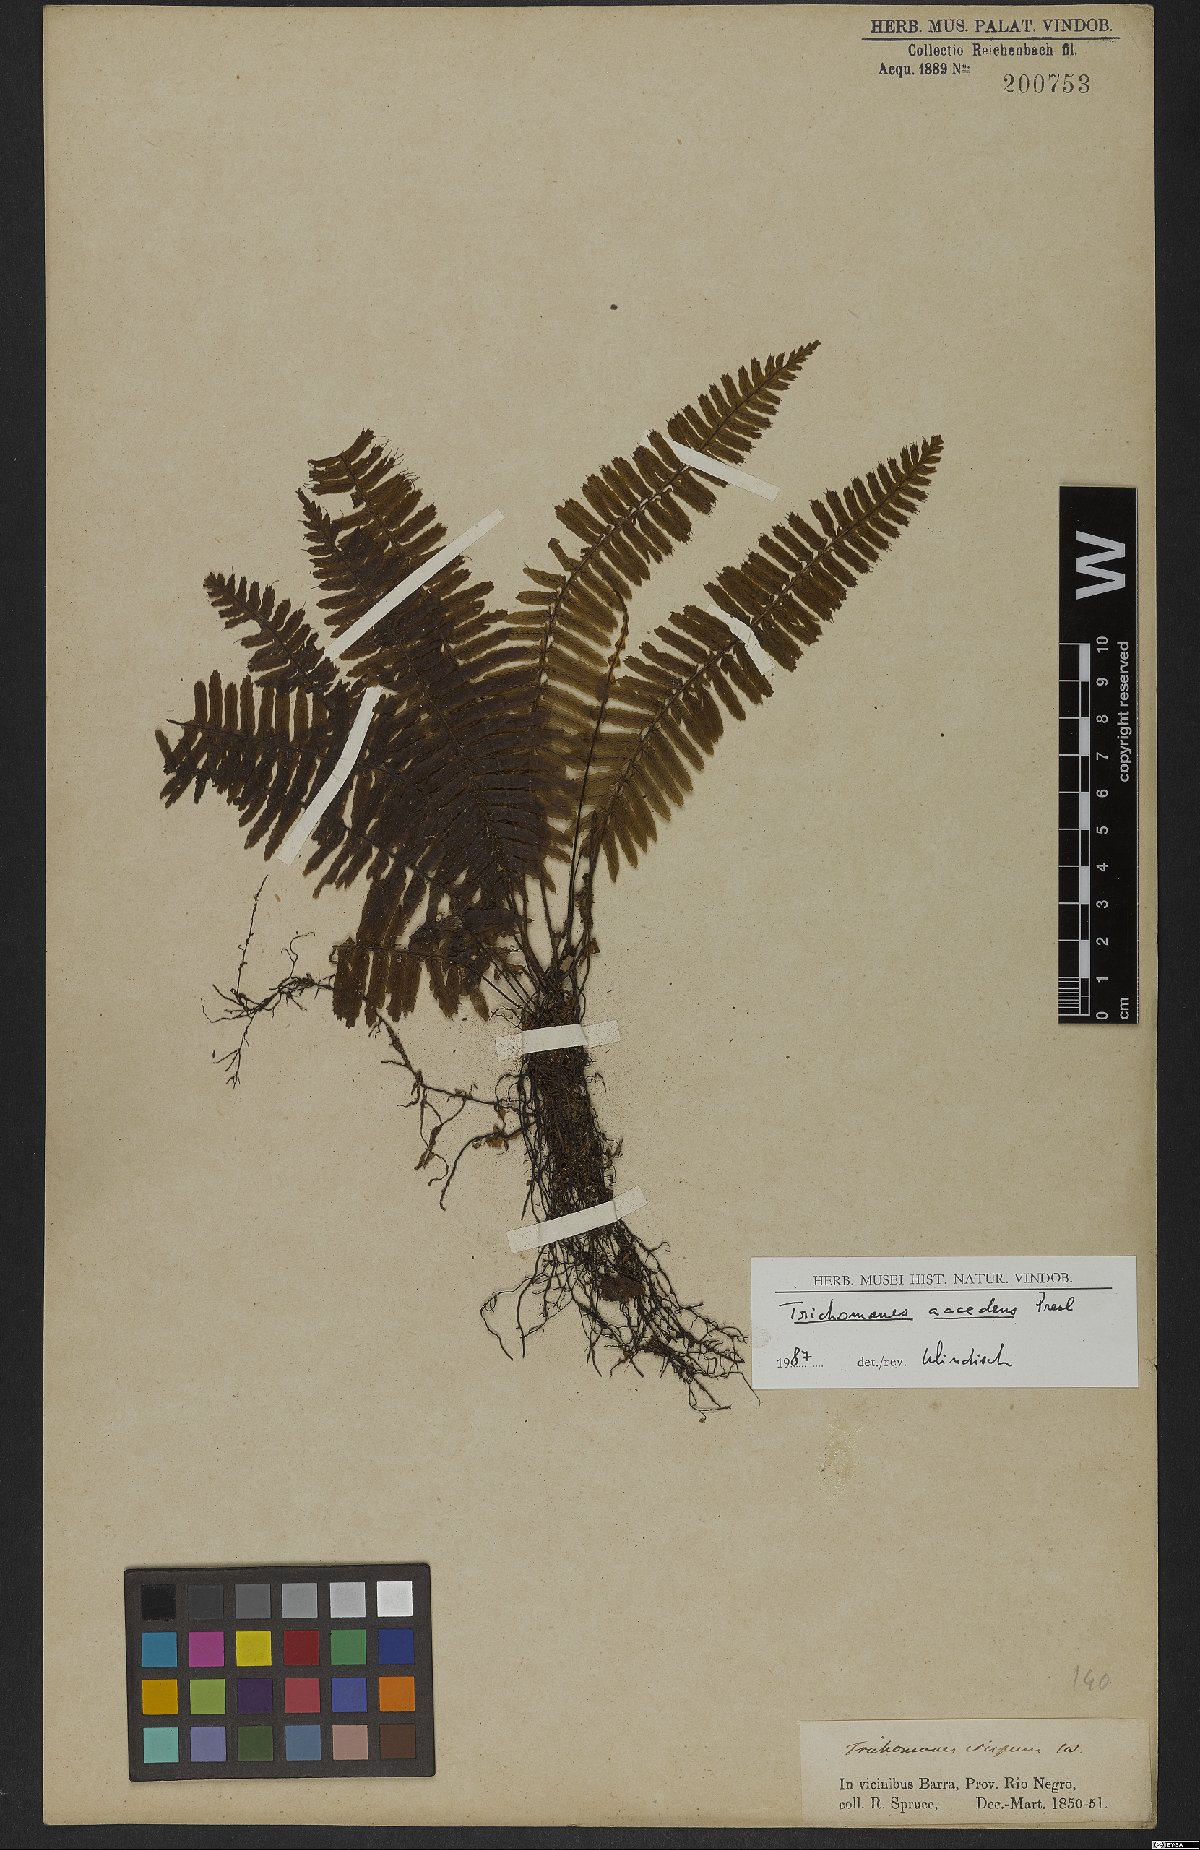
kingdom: Plantae
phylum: Tracheophyta
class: Polypodiopsida
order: Hymenophyllales
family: Hymenophyllaceae
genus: Trichomanes
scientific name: Trichomanes accedens
